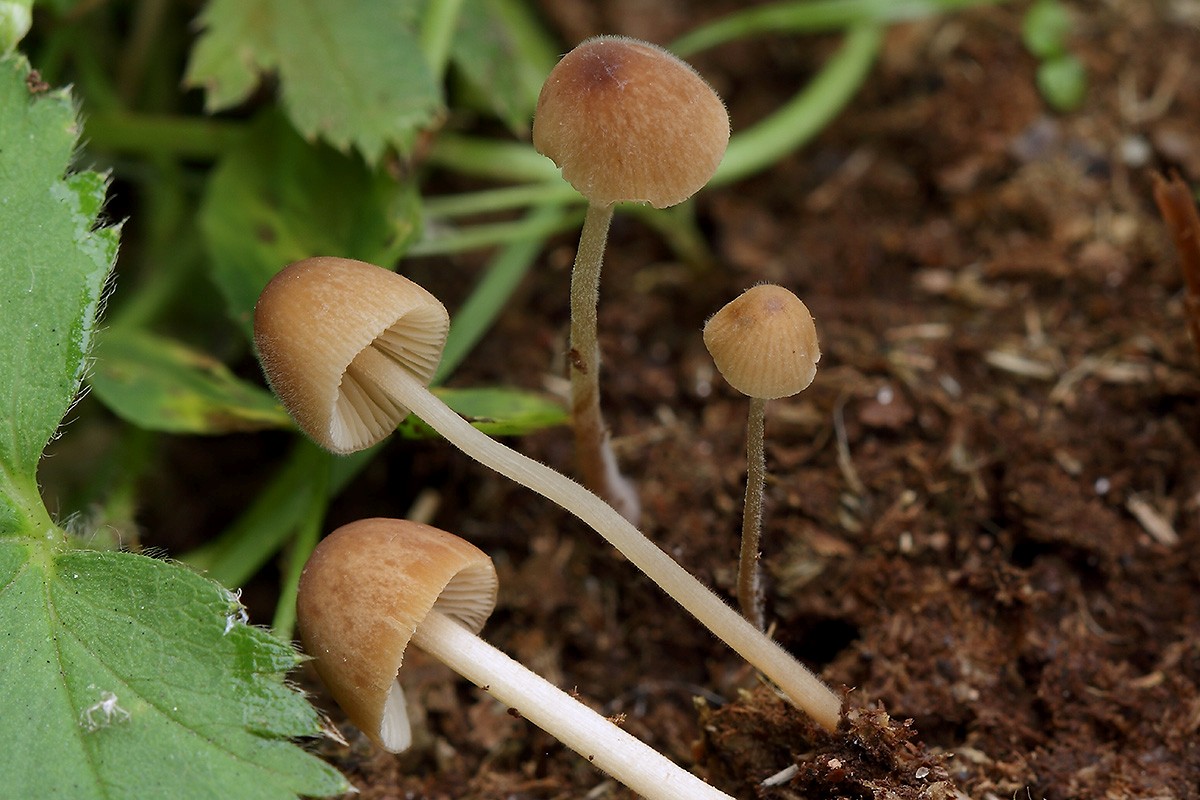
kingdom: Fungi
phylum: Basidiomycota
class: Agaricomycetes
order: Agaricales
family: Bolbitiaceae
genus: Conocybe
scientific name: Conocybe brunneidisca
